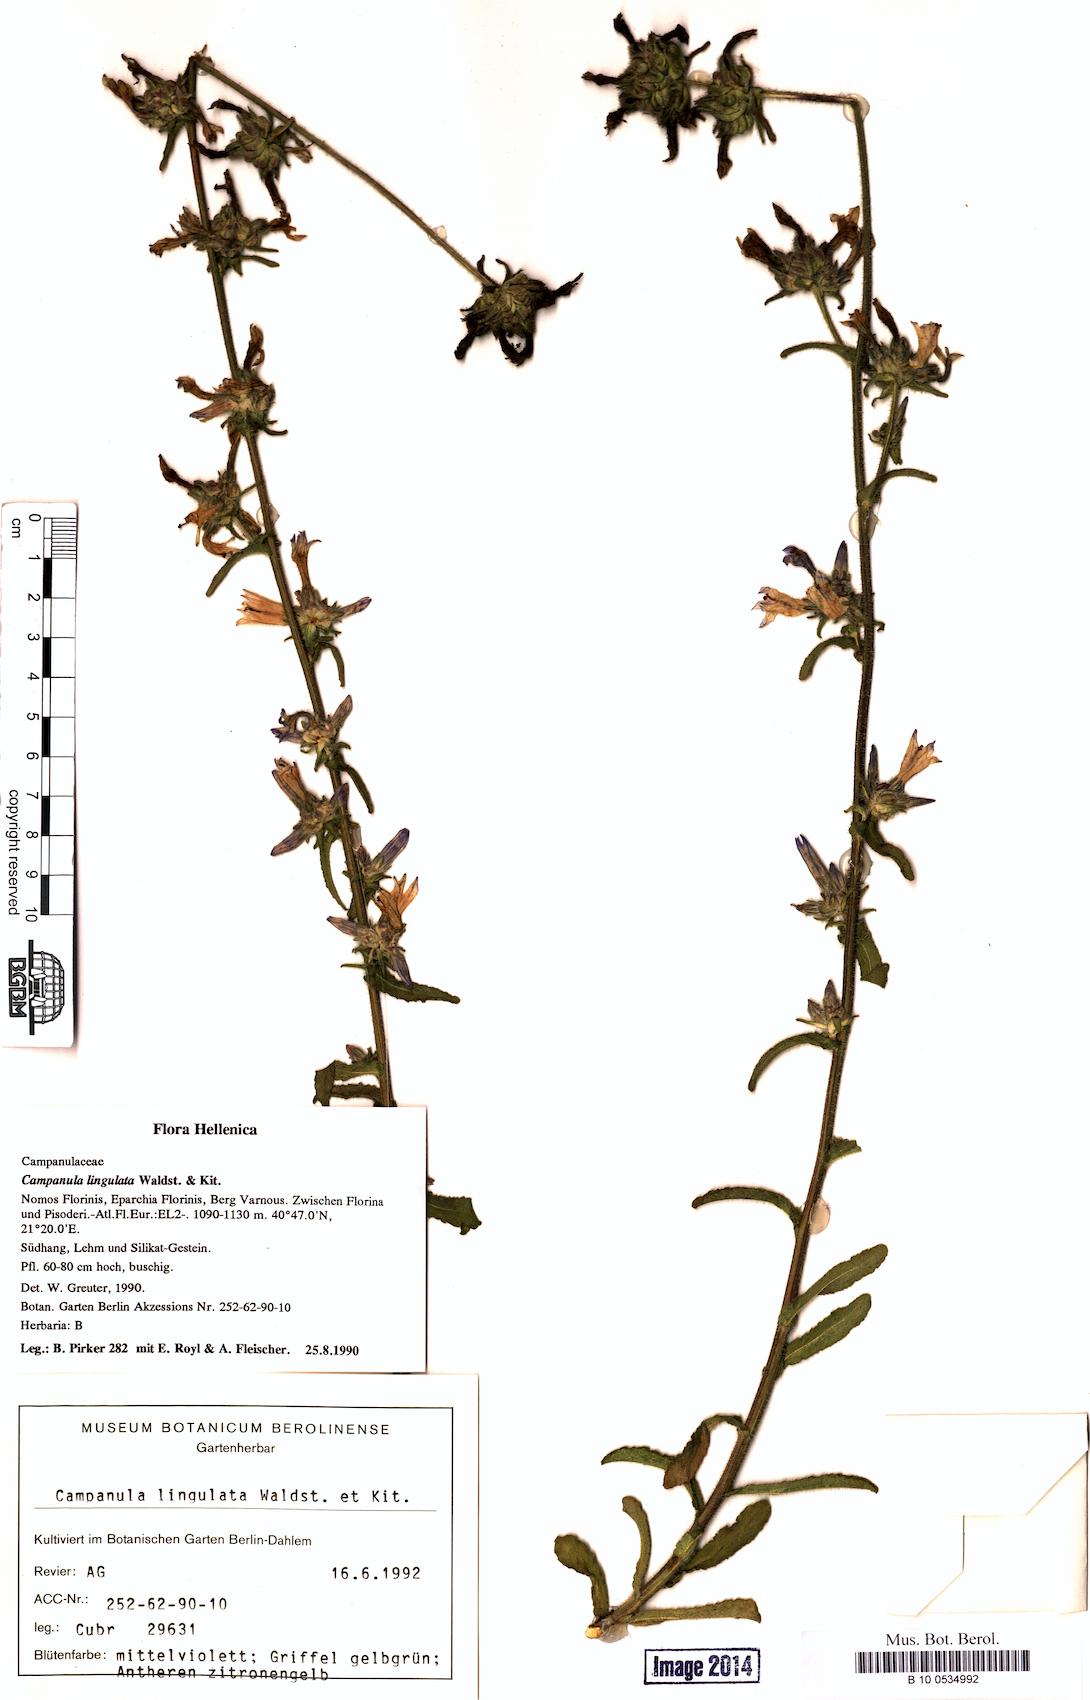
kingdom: Plantae
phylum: Tracheophyta
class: Magnoliopsida
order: Asterales
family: Campanulaceae
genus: Campanula
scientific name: Campanula lingulata
